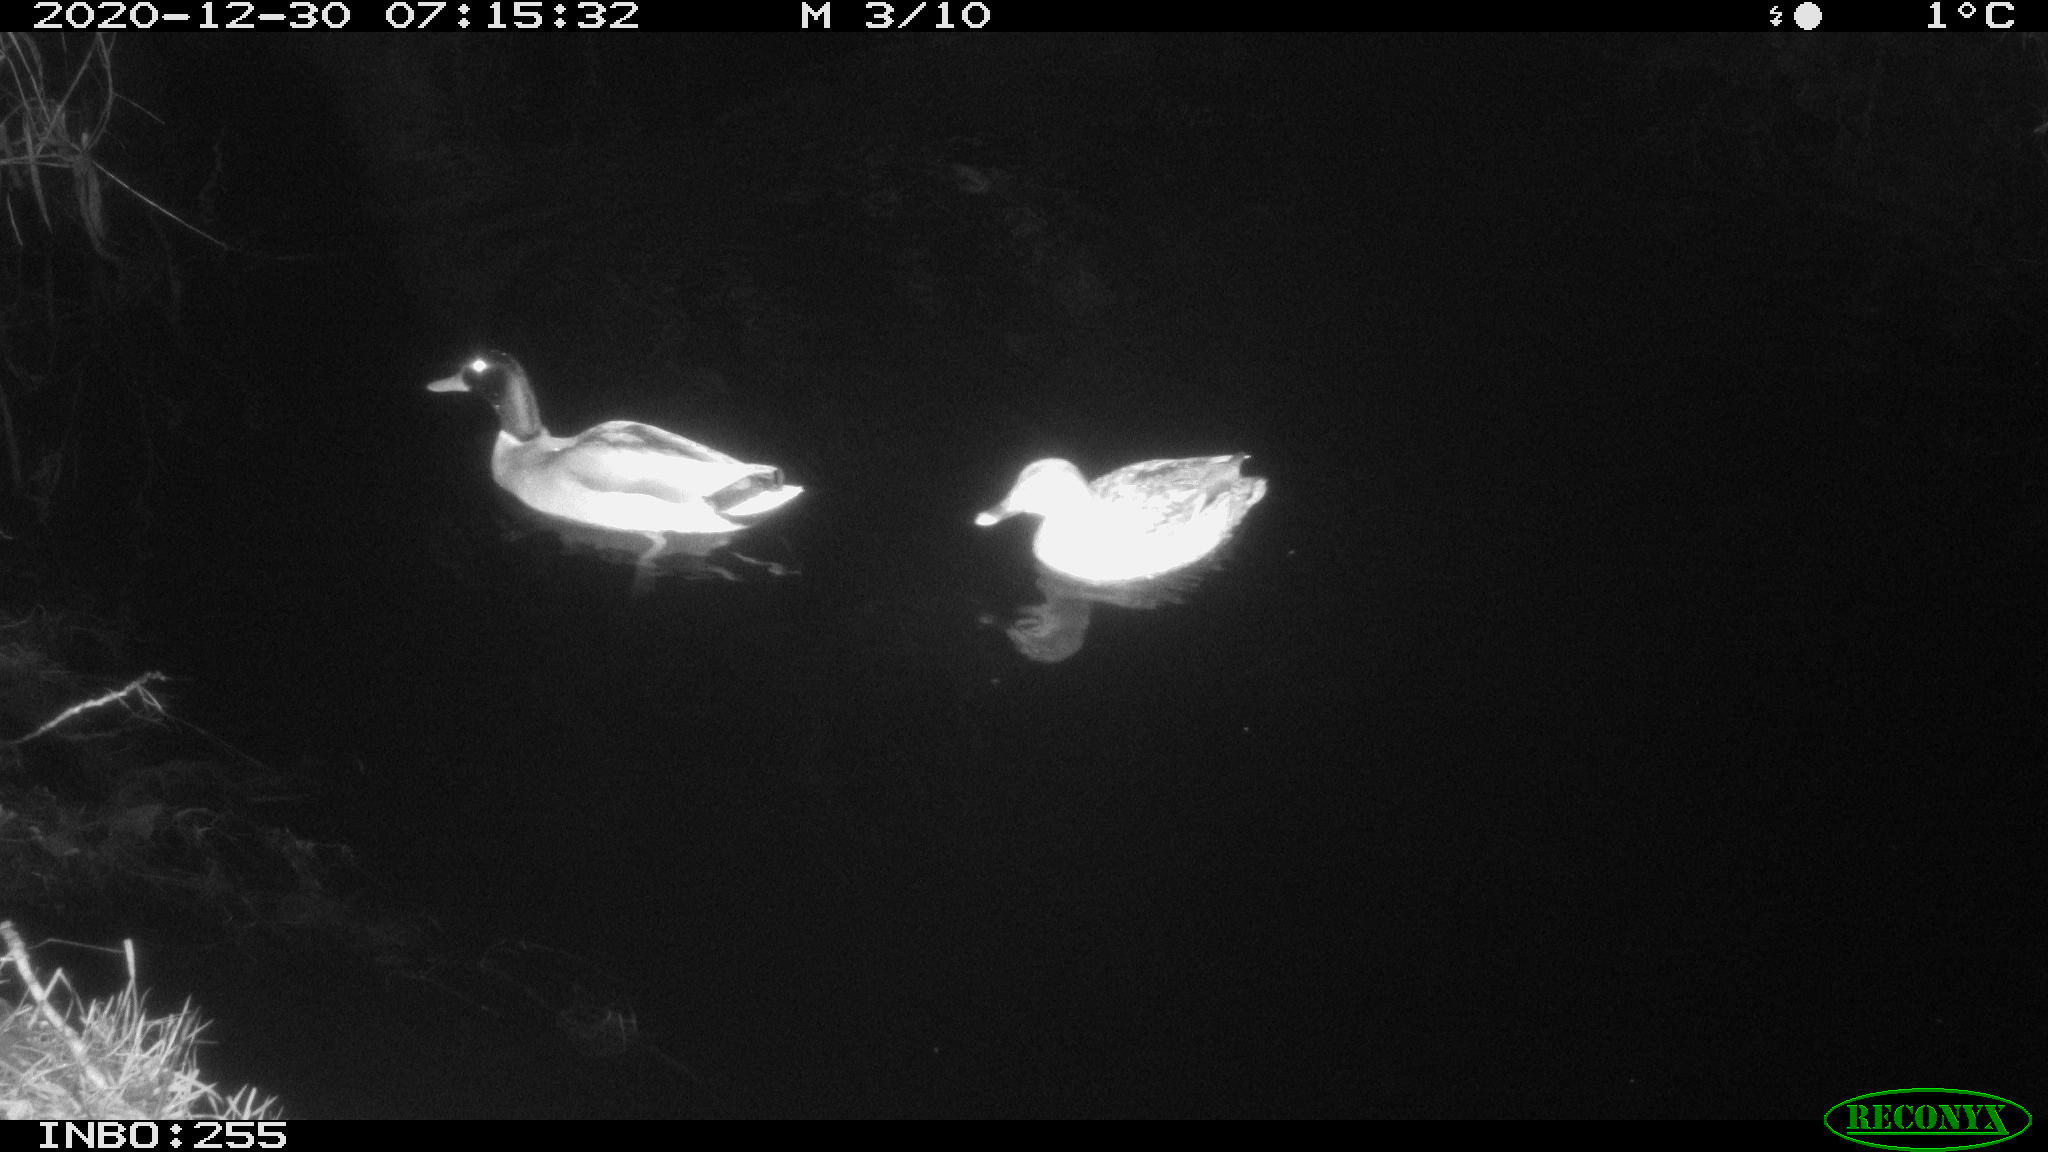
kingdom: Animalia
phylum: Chordata
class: Aves
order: Anseriformes
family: Anatidae
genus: Anas
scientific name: Anas platyrhynchos
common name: Mallard
